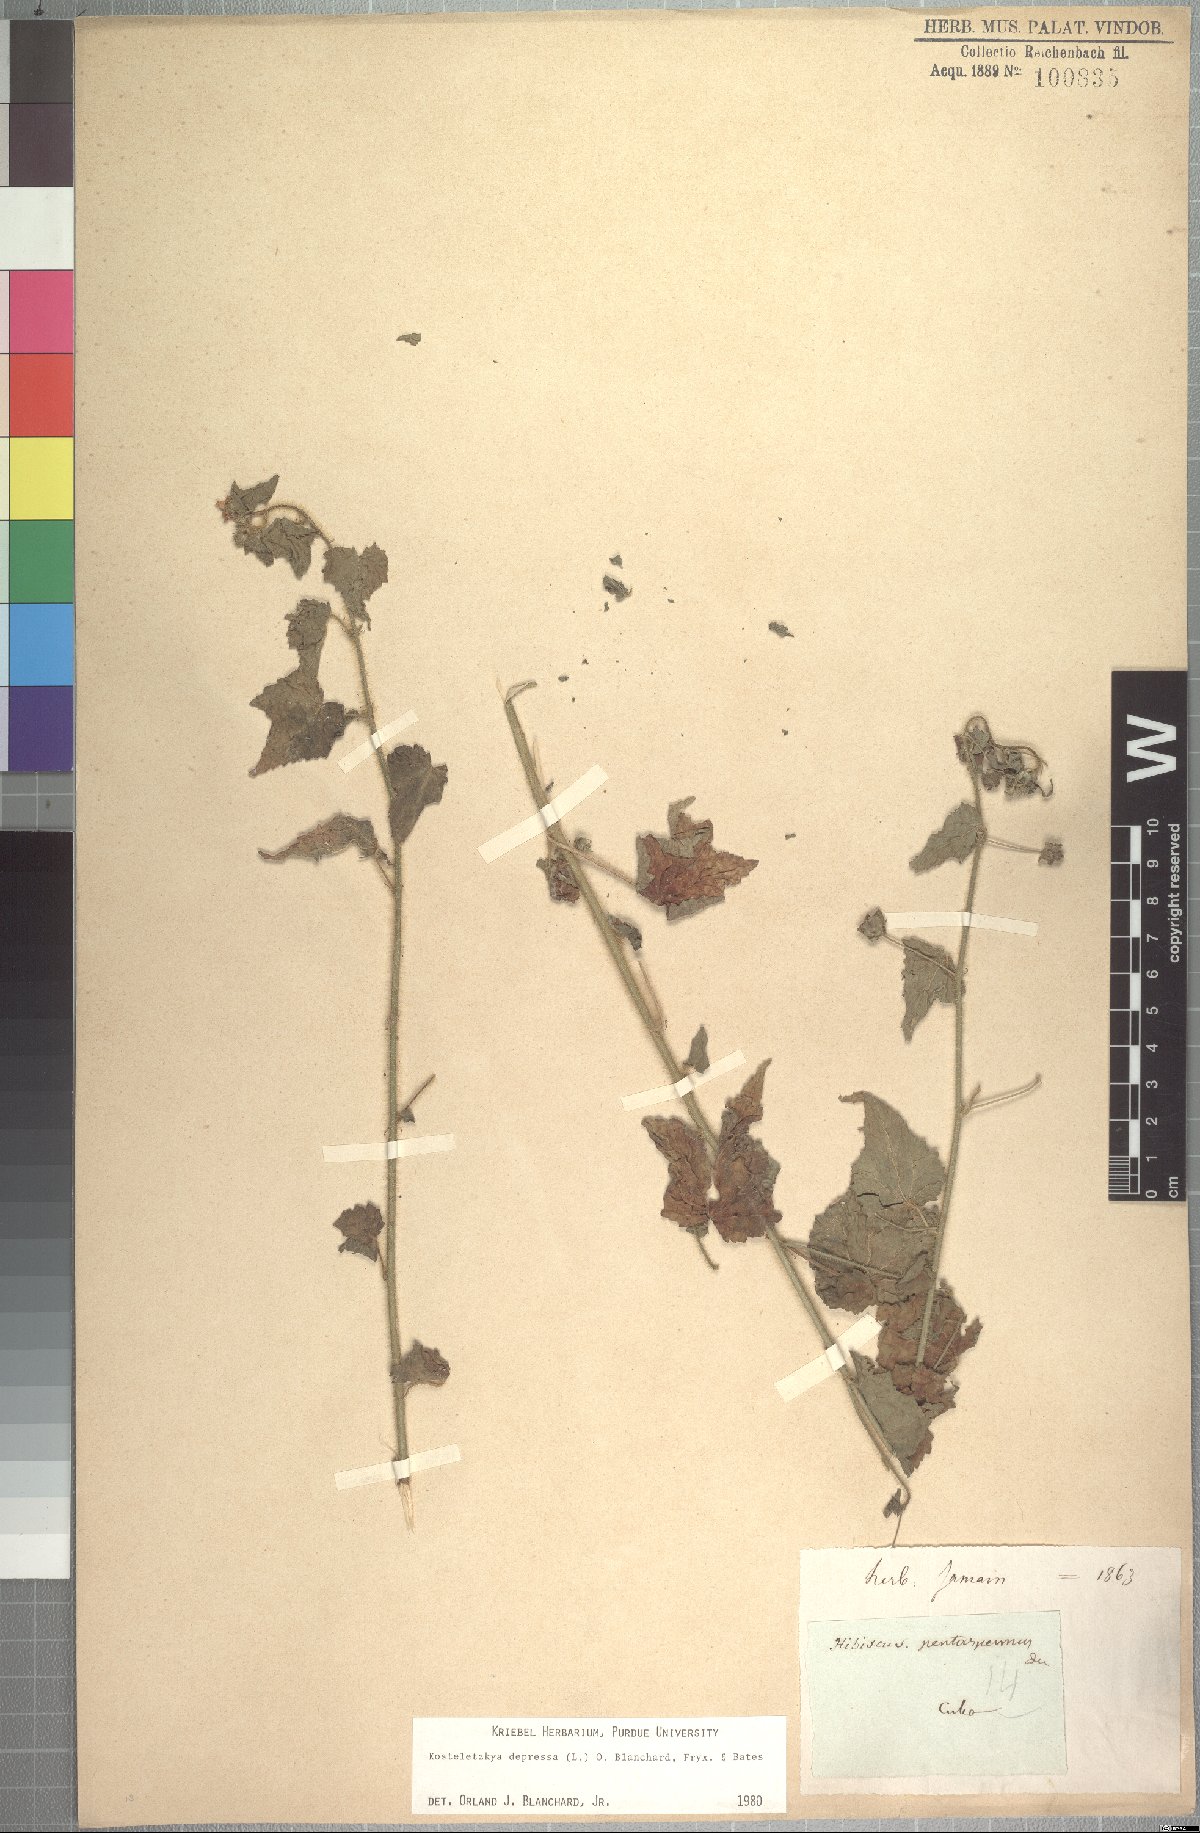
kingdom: Plantae
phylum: Tracheophyta
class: Magnoliopsida
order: Malvales
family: Malvaceae
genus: Kosteletzkya
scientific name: Kosteletzkya depressa
